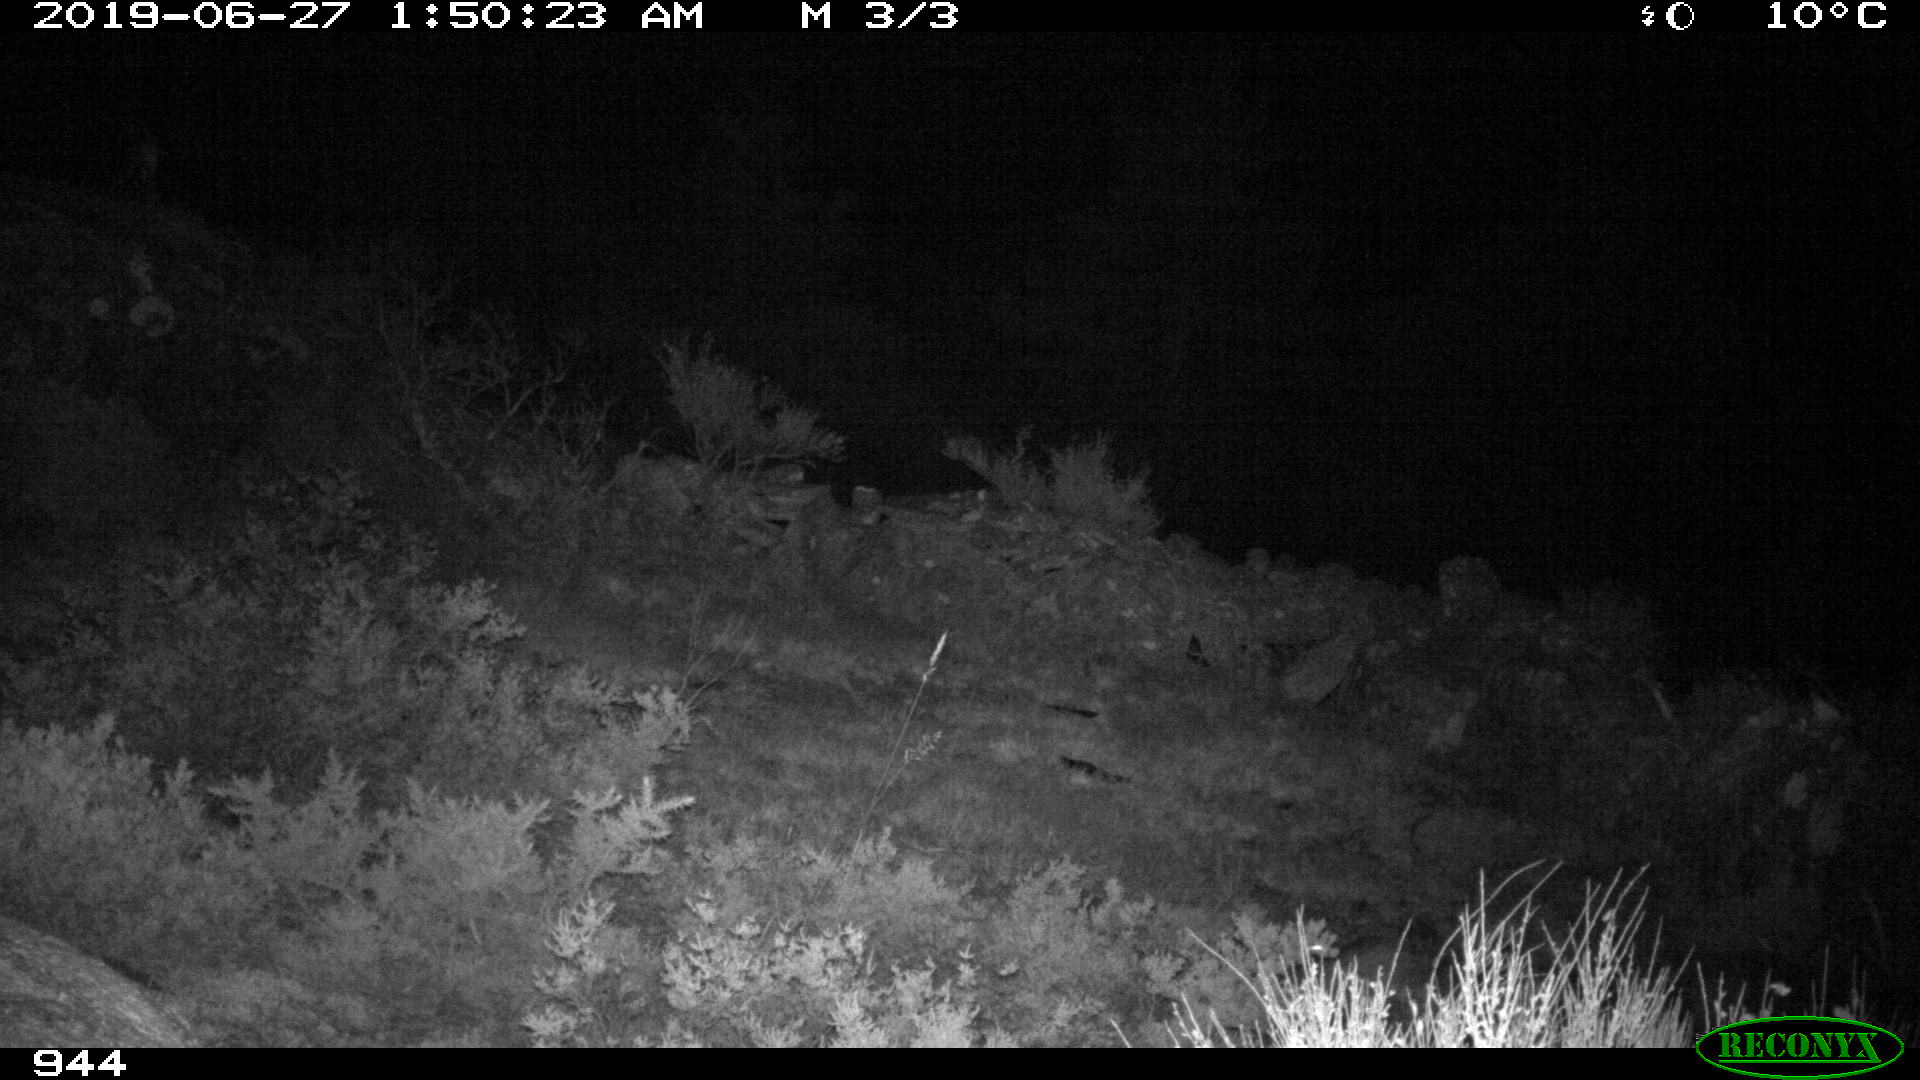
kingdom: Animalia
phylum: Chordata
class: Mammalia
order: Artiodactyla
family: Suidae
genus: Sus
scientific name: Sus scrofa
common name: Wild boar
